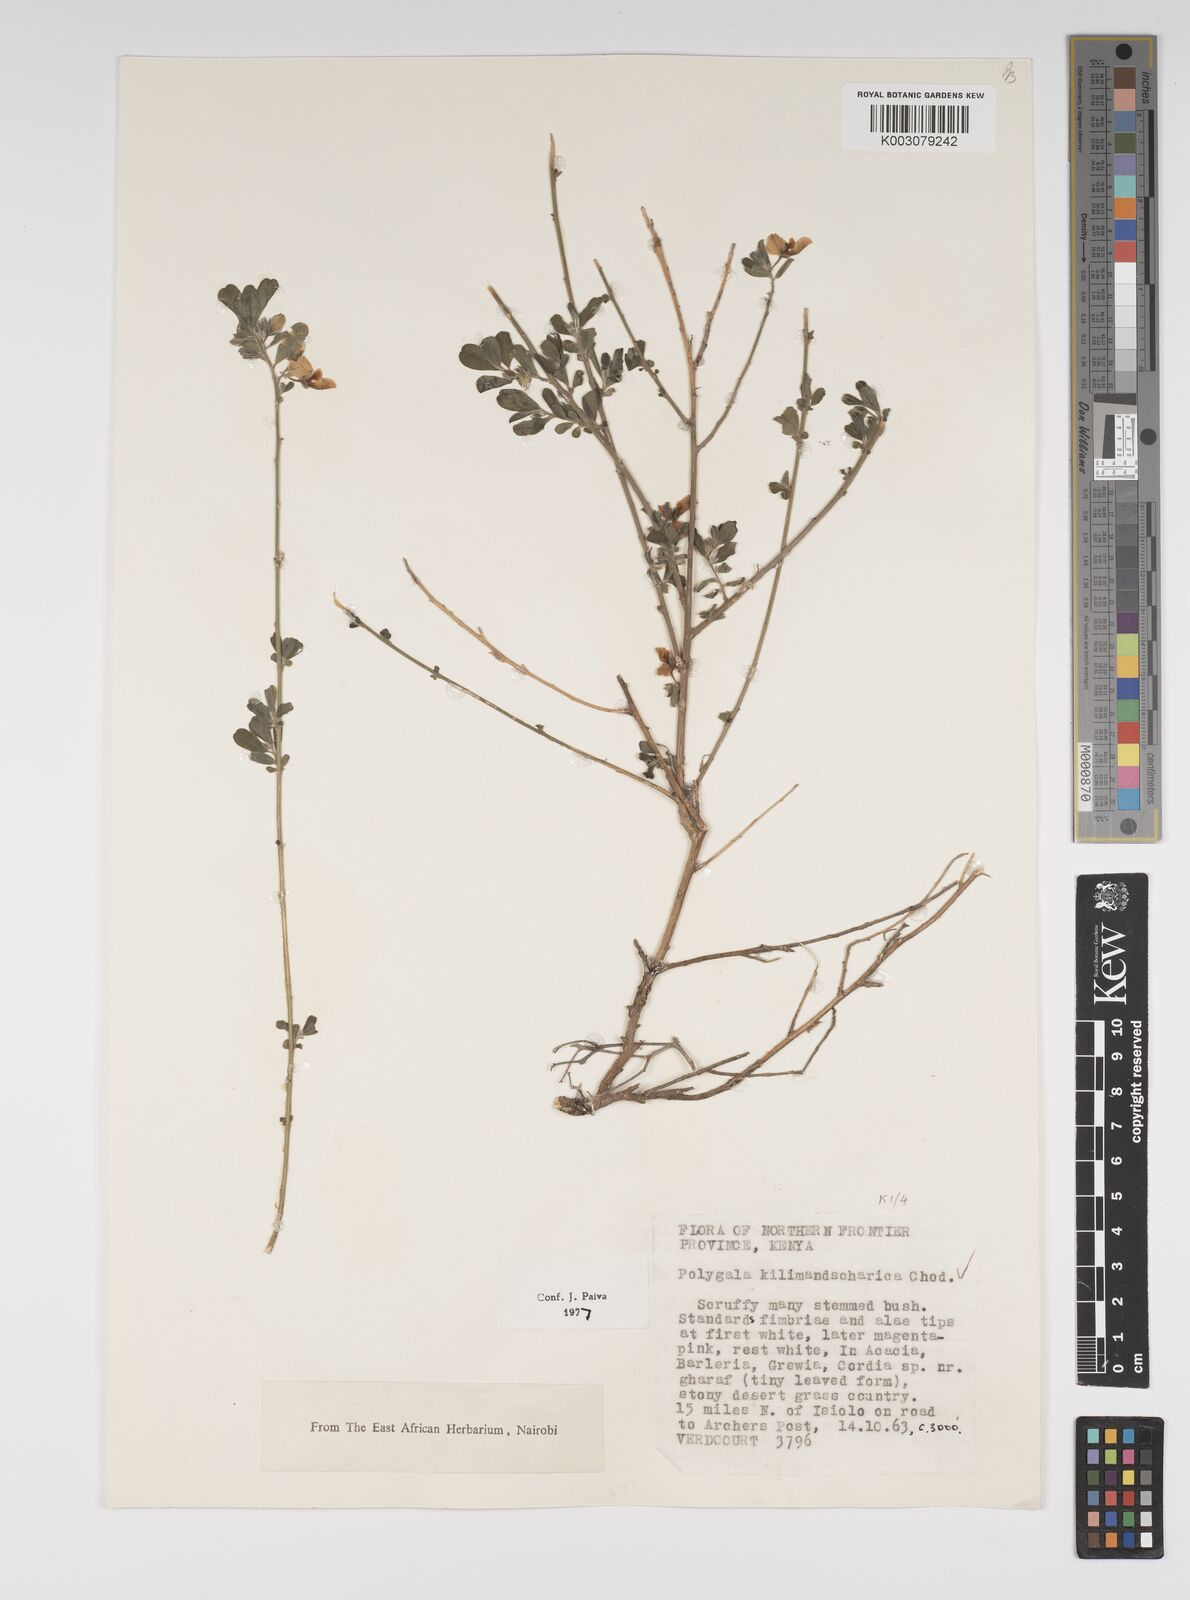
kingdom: Plantae
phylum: Tracheophyta
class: Magnoliopsida
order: Fabales
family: Polygalaceae
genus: Polygala
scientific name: Polygala kilimandjarica
